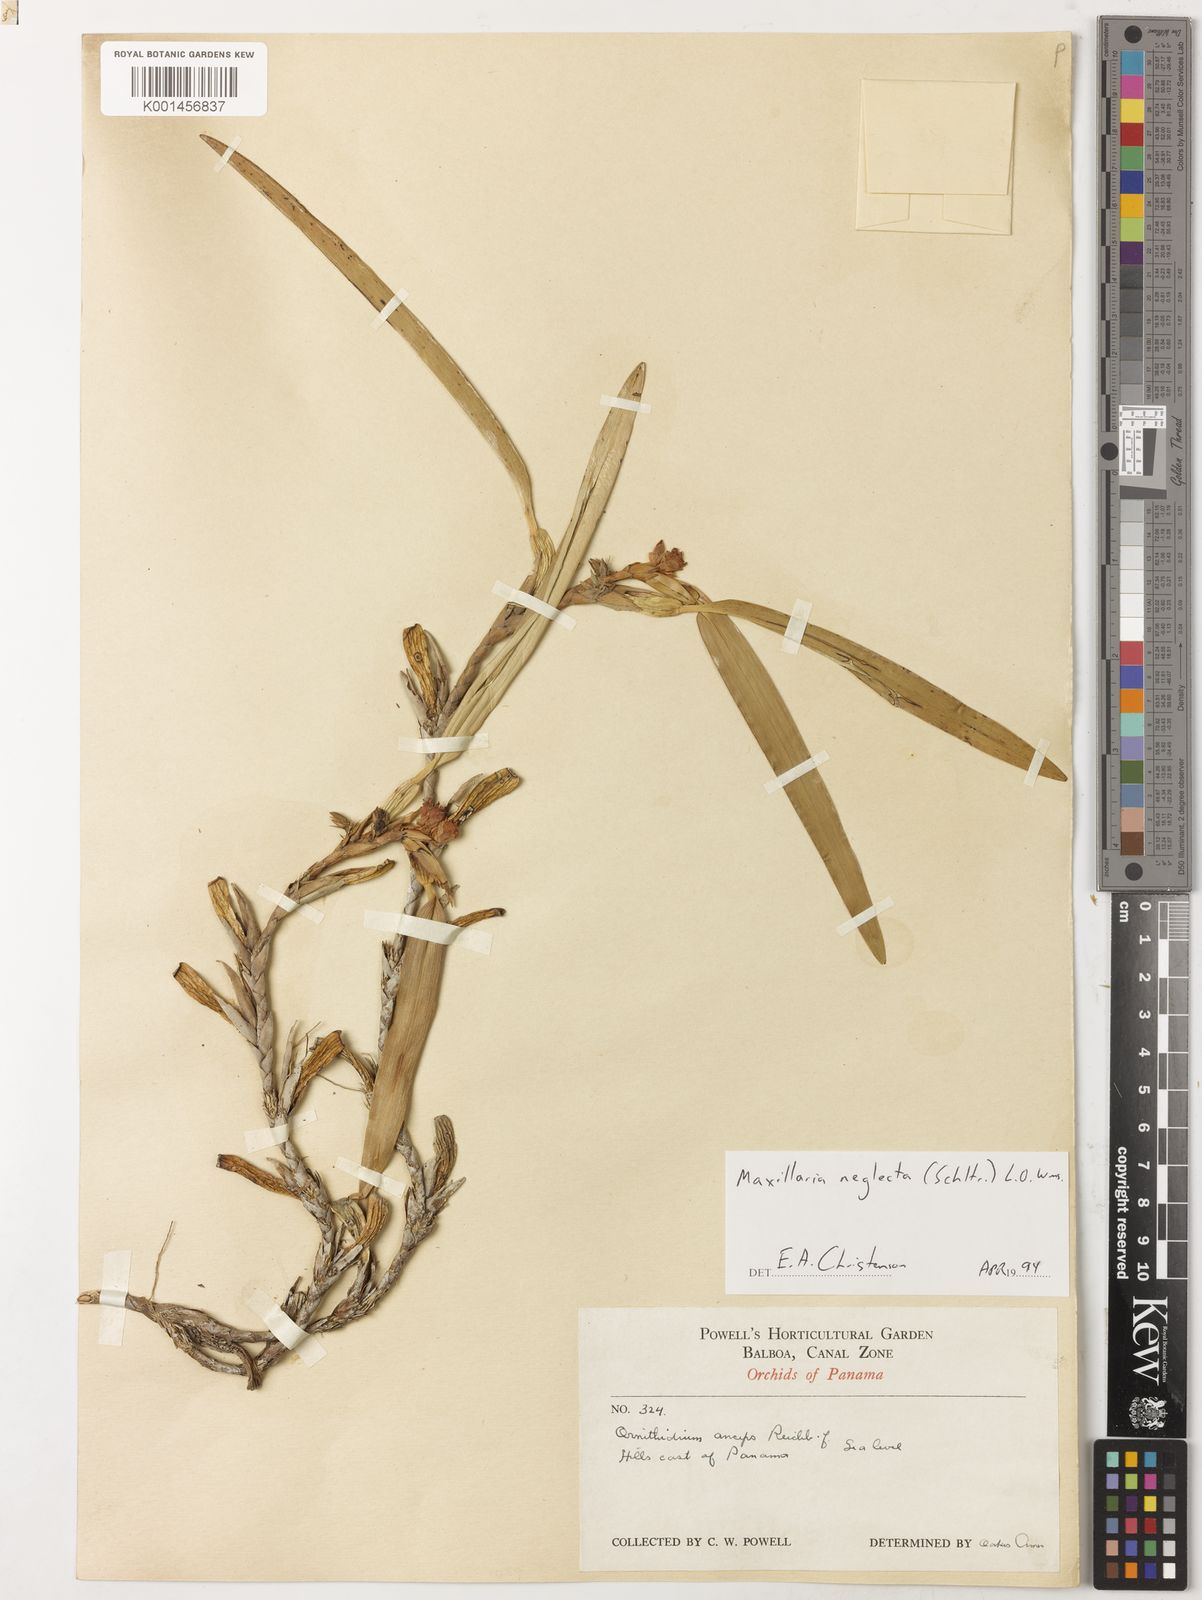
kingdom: Plantae
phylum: Tracheophyta
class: Liliopsida
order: Asparagales
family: Orchidaceae
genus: Maxillaria
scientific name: Maxillaria neglecta
